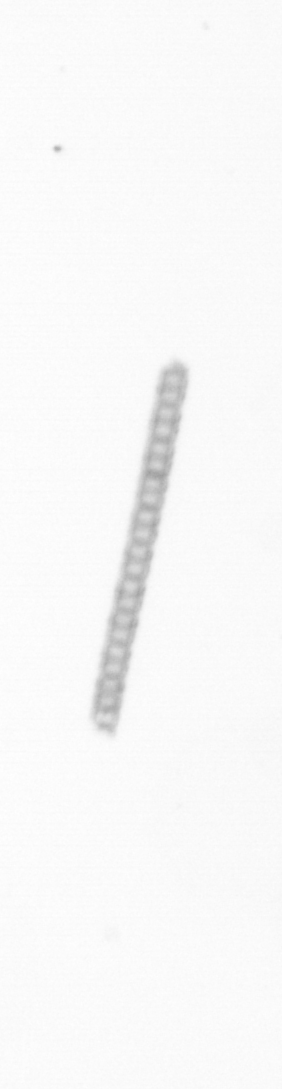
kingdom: Chromista
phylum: Ochrophyta
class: Bacillariophyceae
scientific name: Bacillariophyceae
